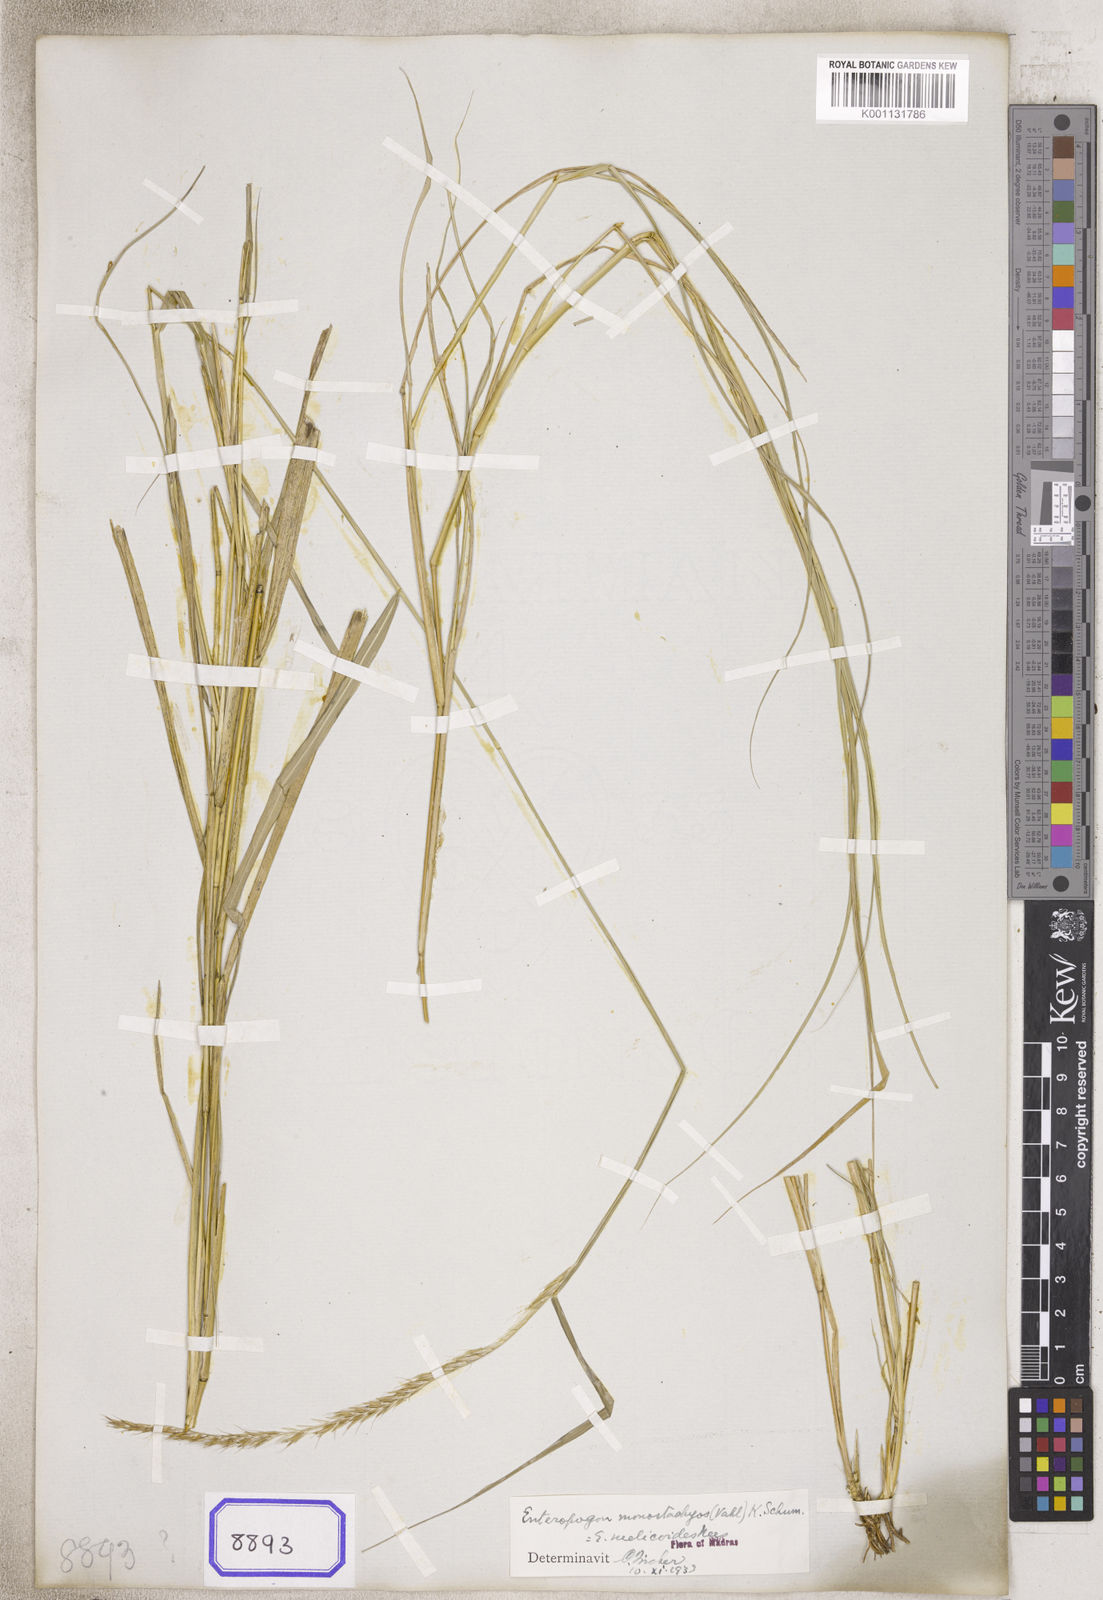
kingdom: Plantae
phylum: Tracheophyta
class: Liliopsida
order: Poales
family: Poaceae
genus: Enteropogon
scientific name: Enteropogon monostachyos
